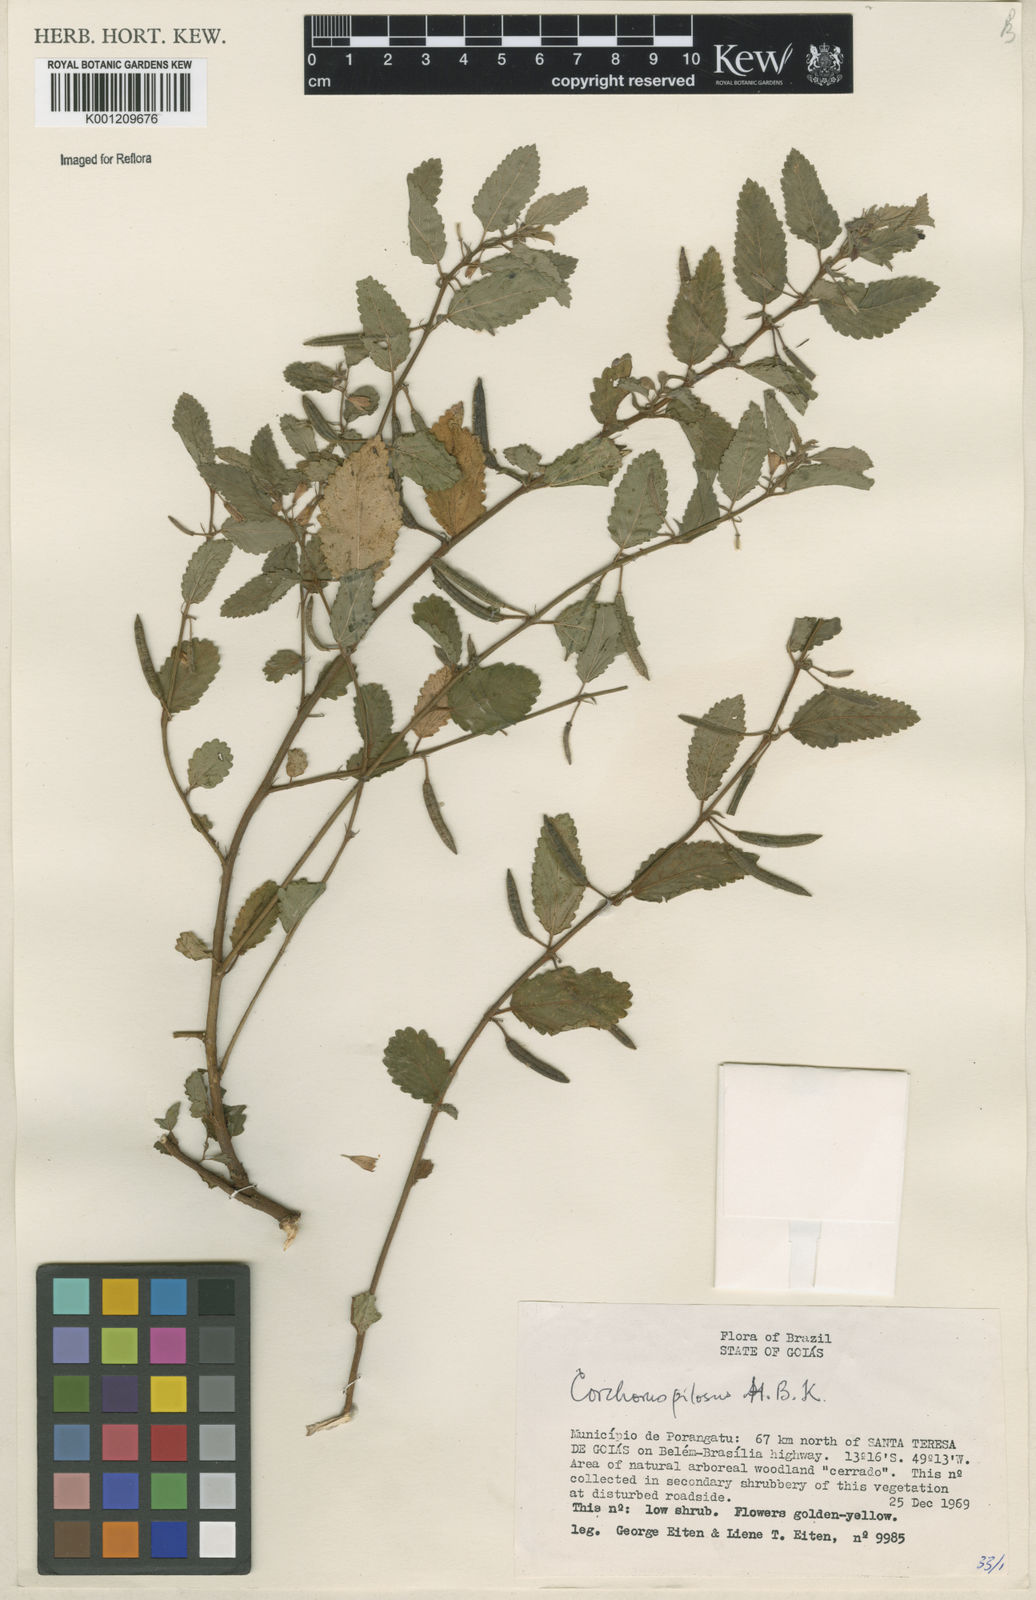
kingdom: Plantae
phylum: Tracheophyta
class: Magnoliopsida
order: Malvales
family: Malvaceae
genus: Corchorus
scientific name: Corchorus hirtus
